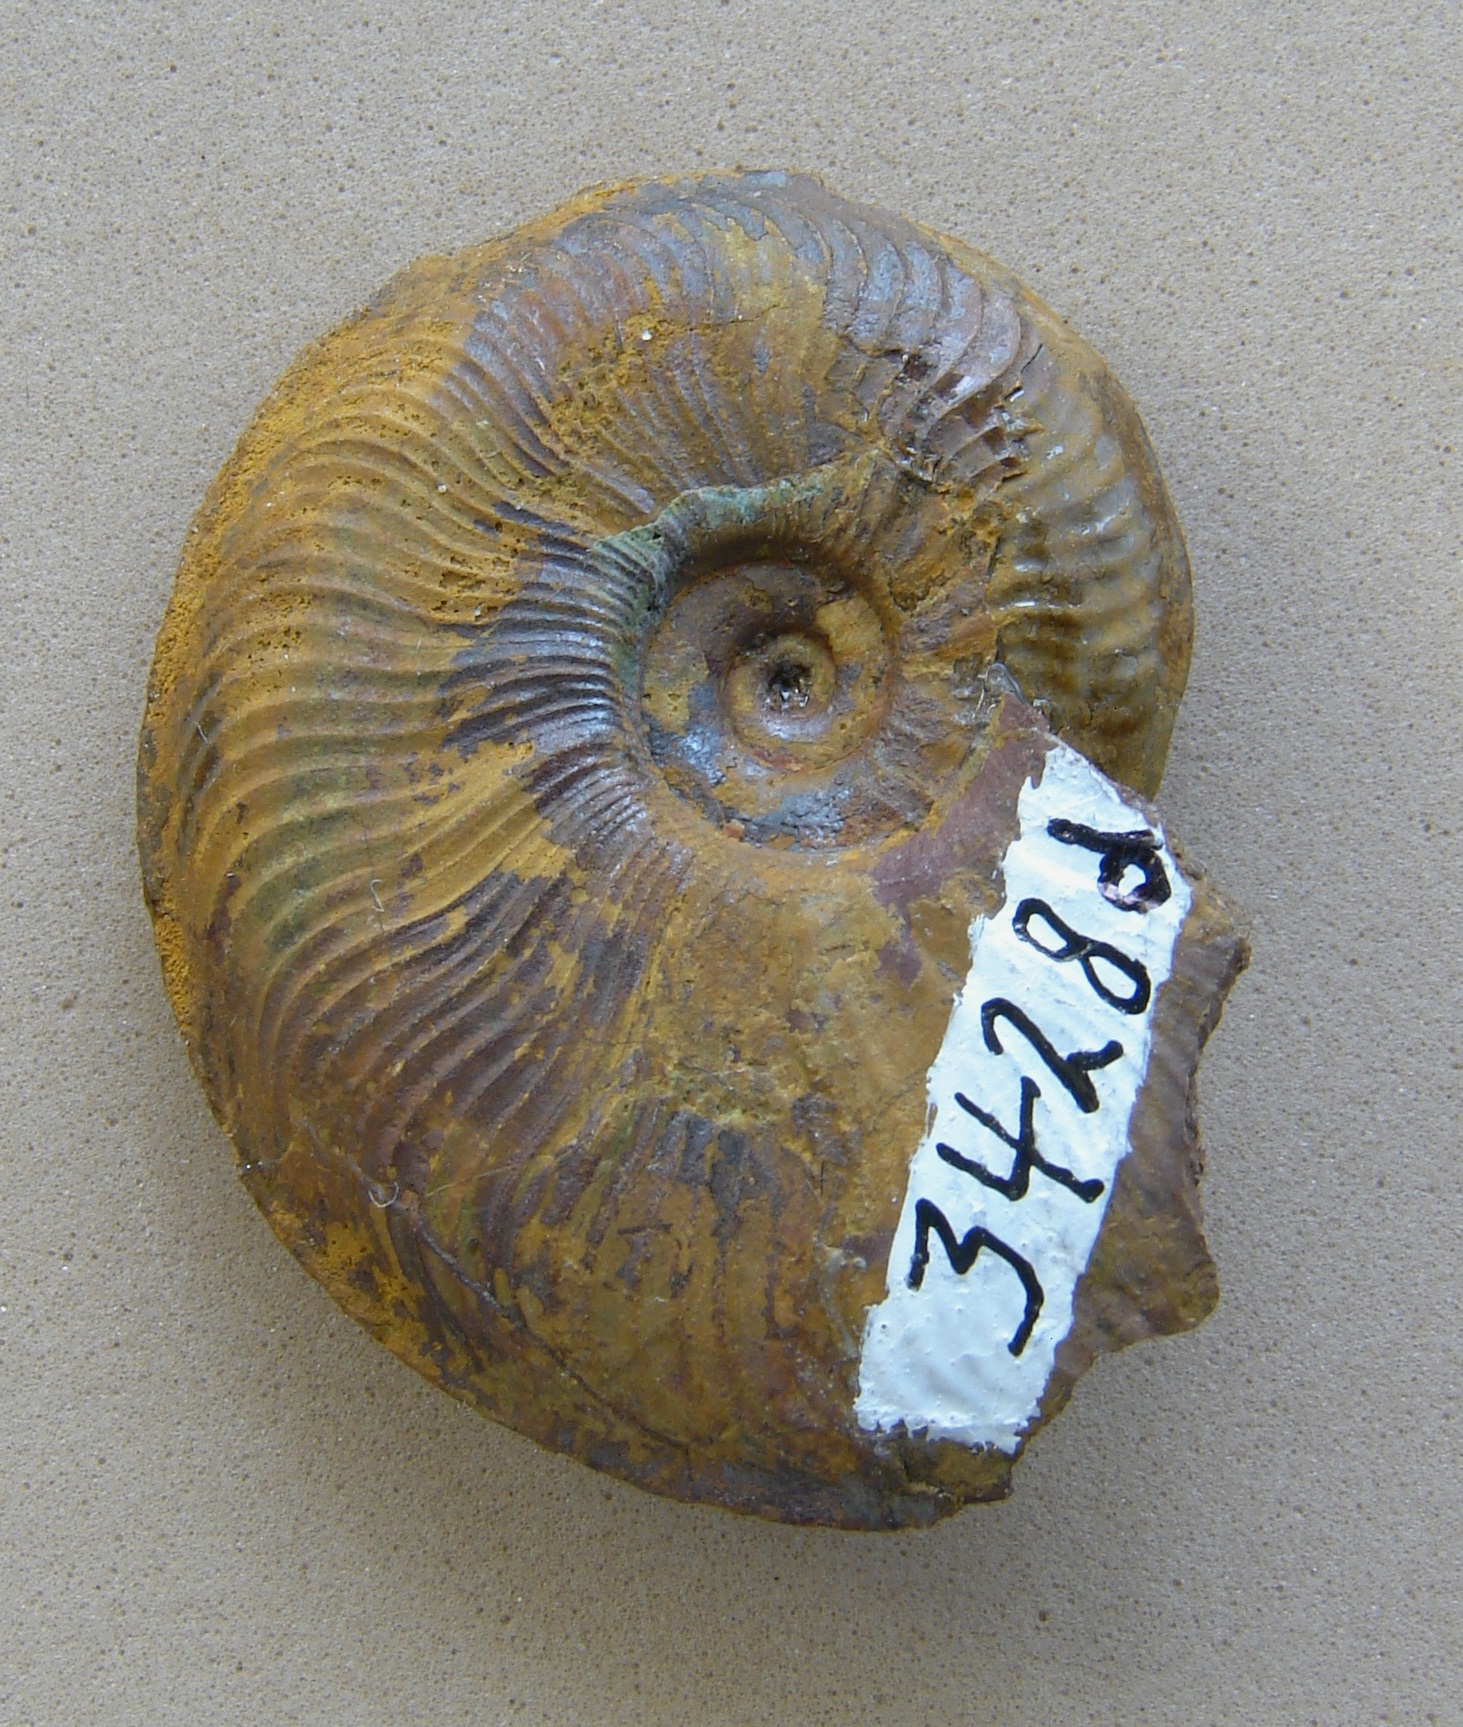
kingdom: Animalia
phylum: Mollusca
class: Cephalopoda
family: Hildoceratidae
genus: Pleydellia
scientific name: Pleydellia buckmani
